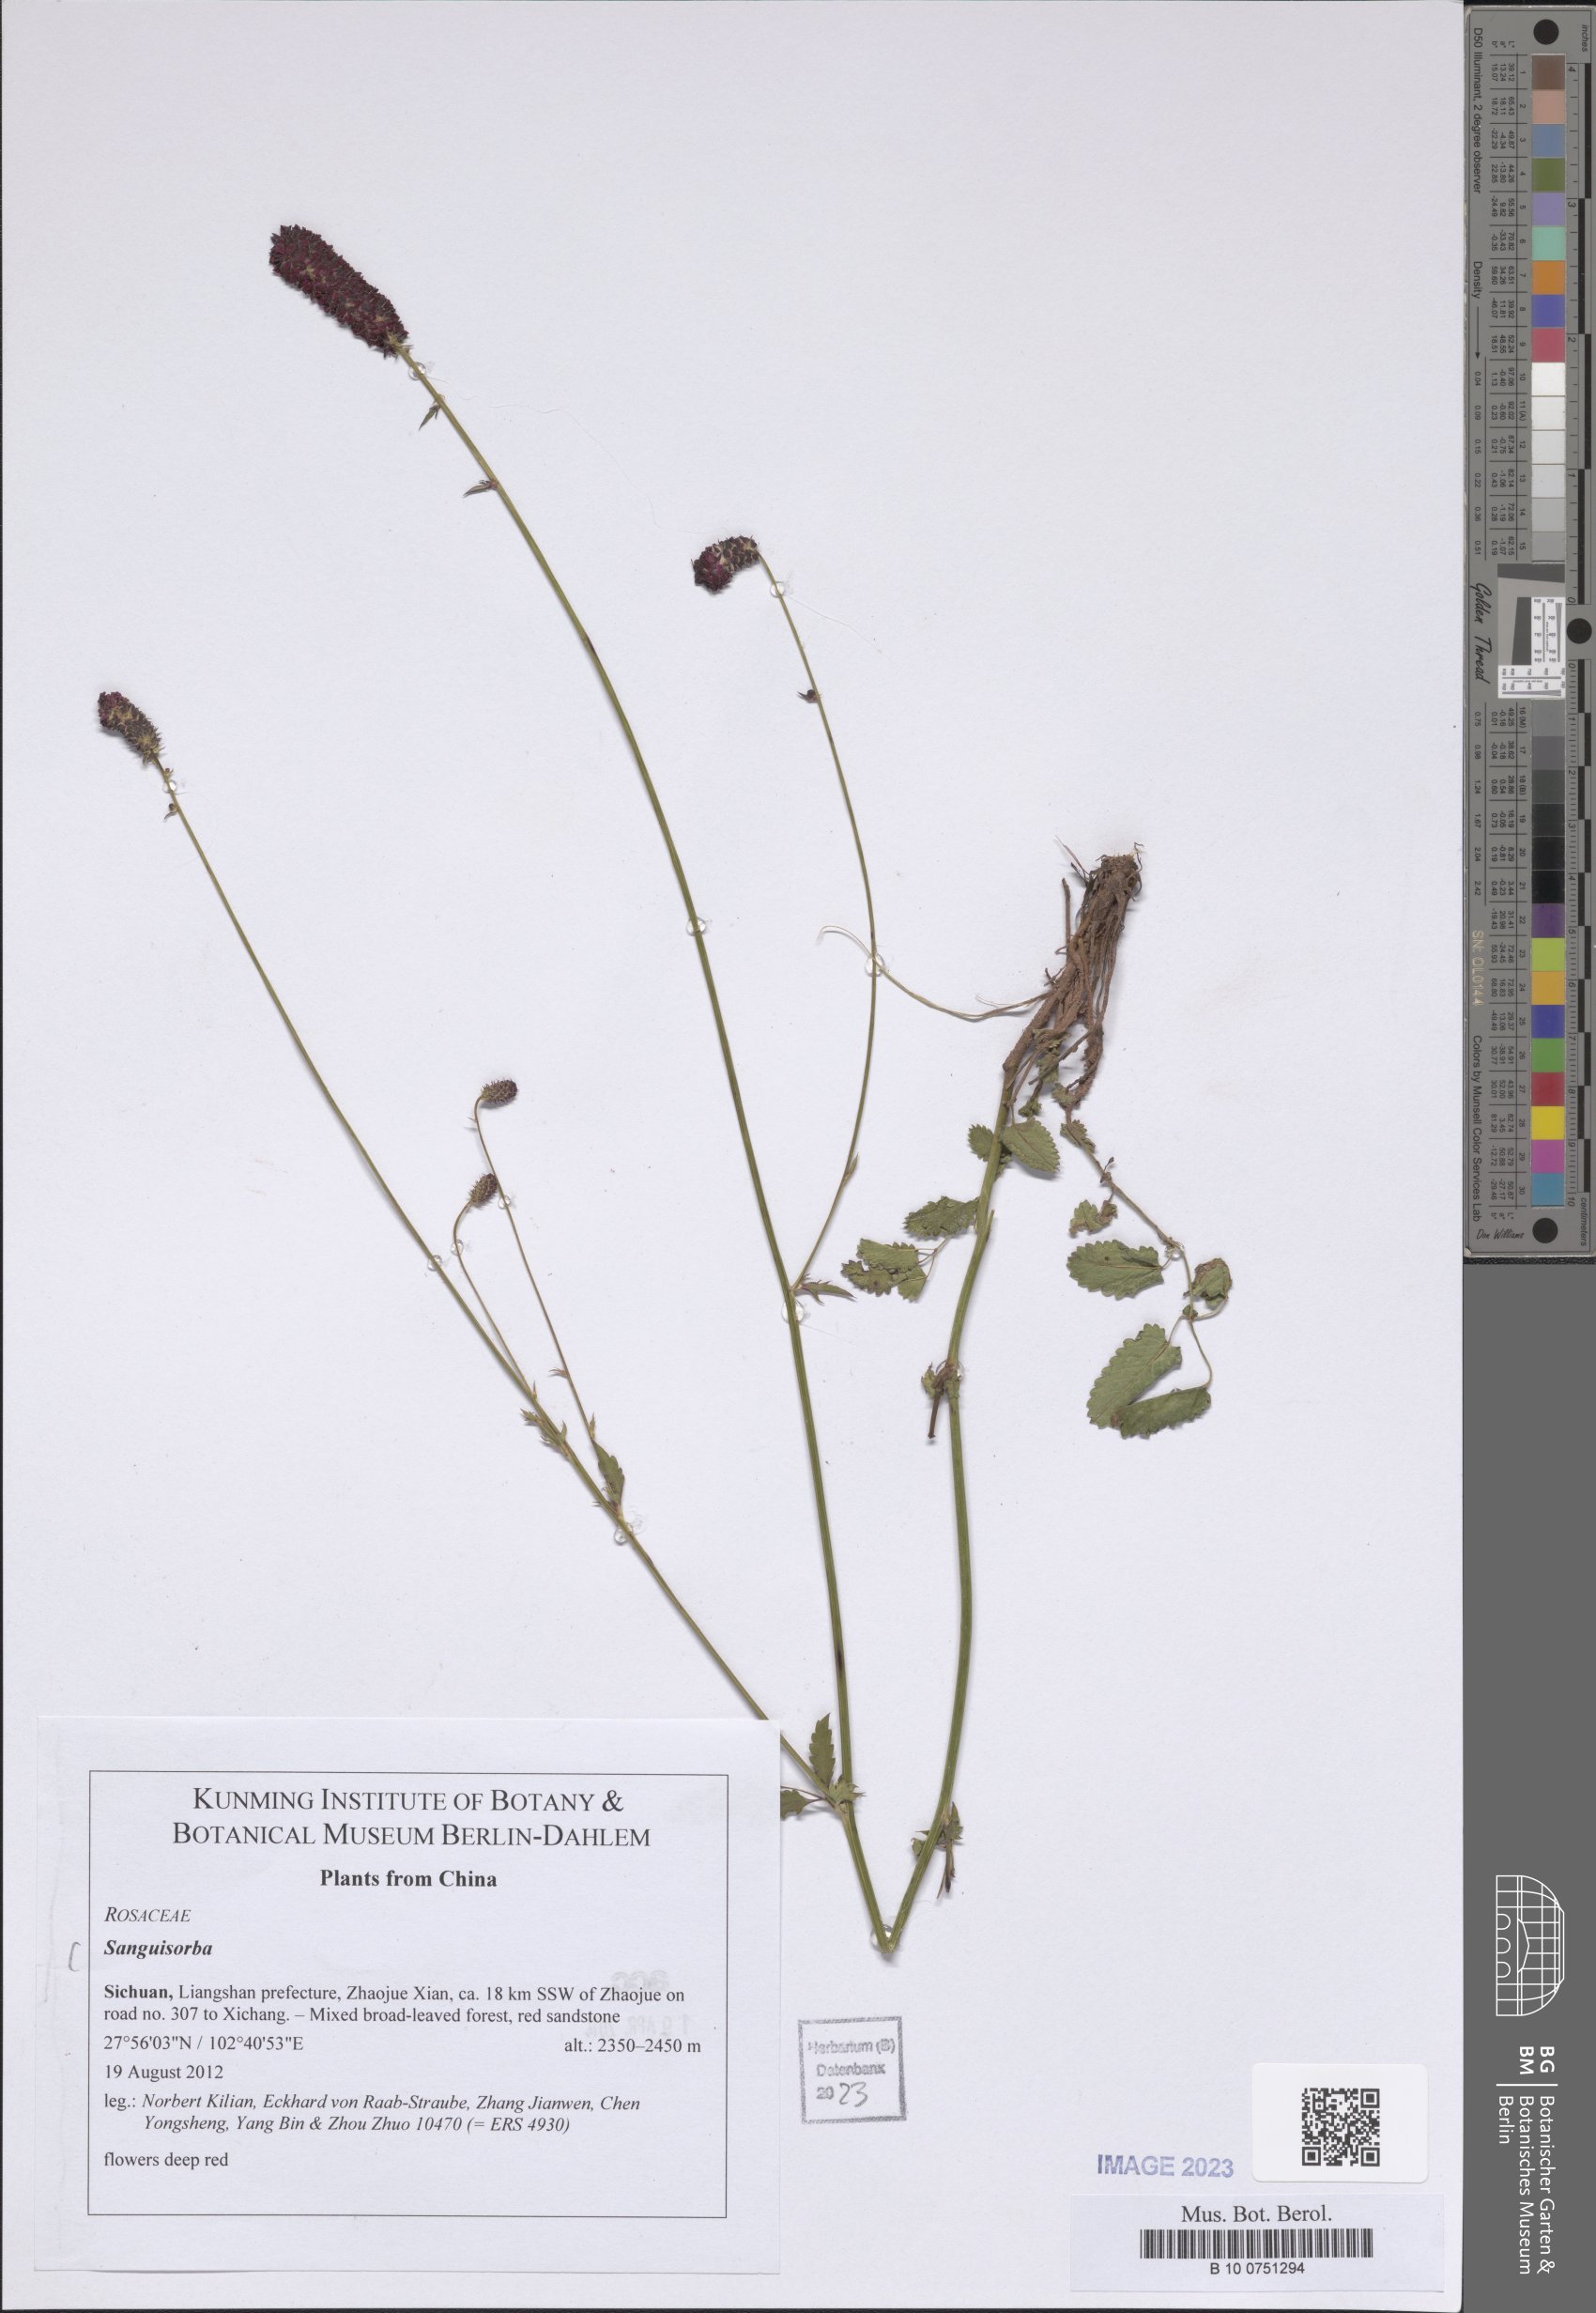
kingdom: Plantae
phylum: Tracheophyta
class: Magnoliopsida
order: Rosales
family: Rosaceae
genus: Sanguisorba
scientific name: Sanguisorba
